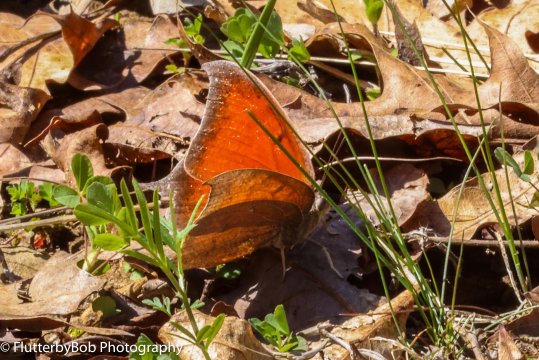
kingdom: Animalia
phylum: Arthropoda
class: Insecta
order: Lepidoptera
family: Nymphalidae
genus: Anaea
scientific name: Anaea andria
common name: Goatweed Leafwing
